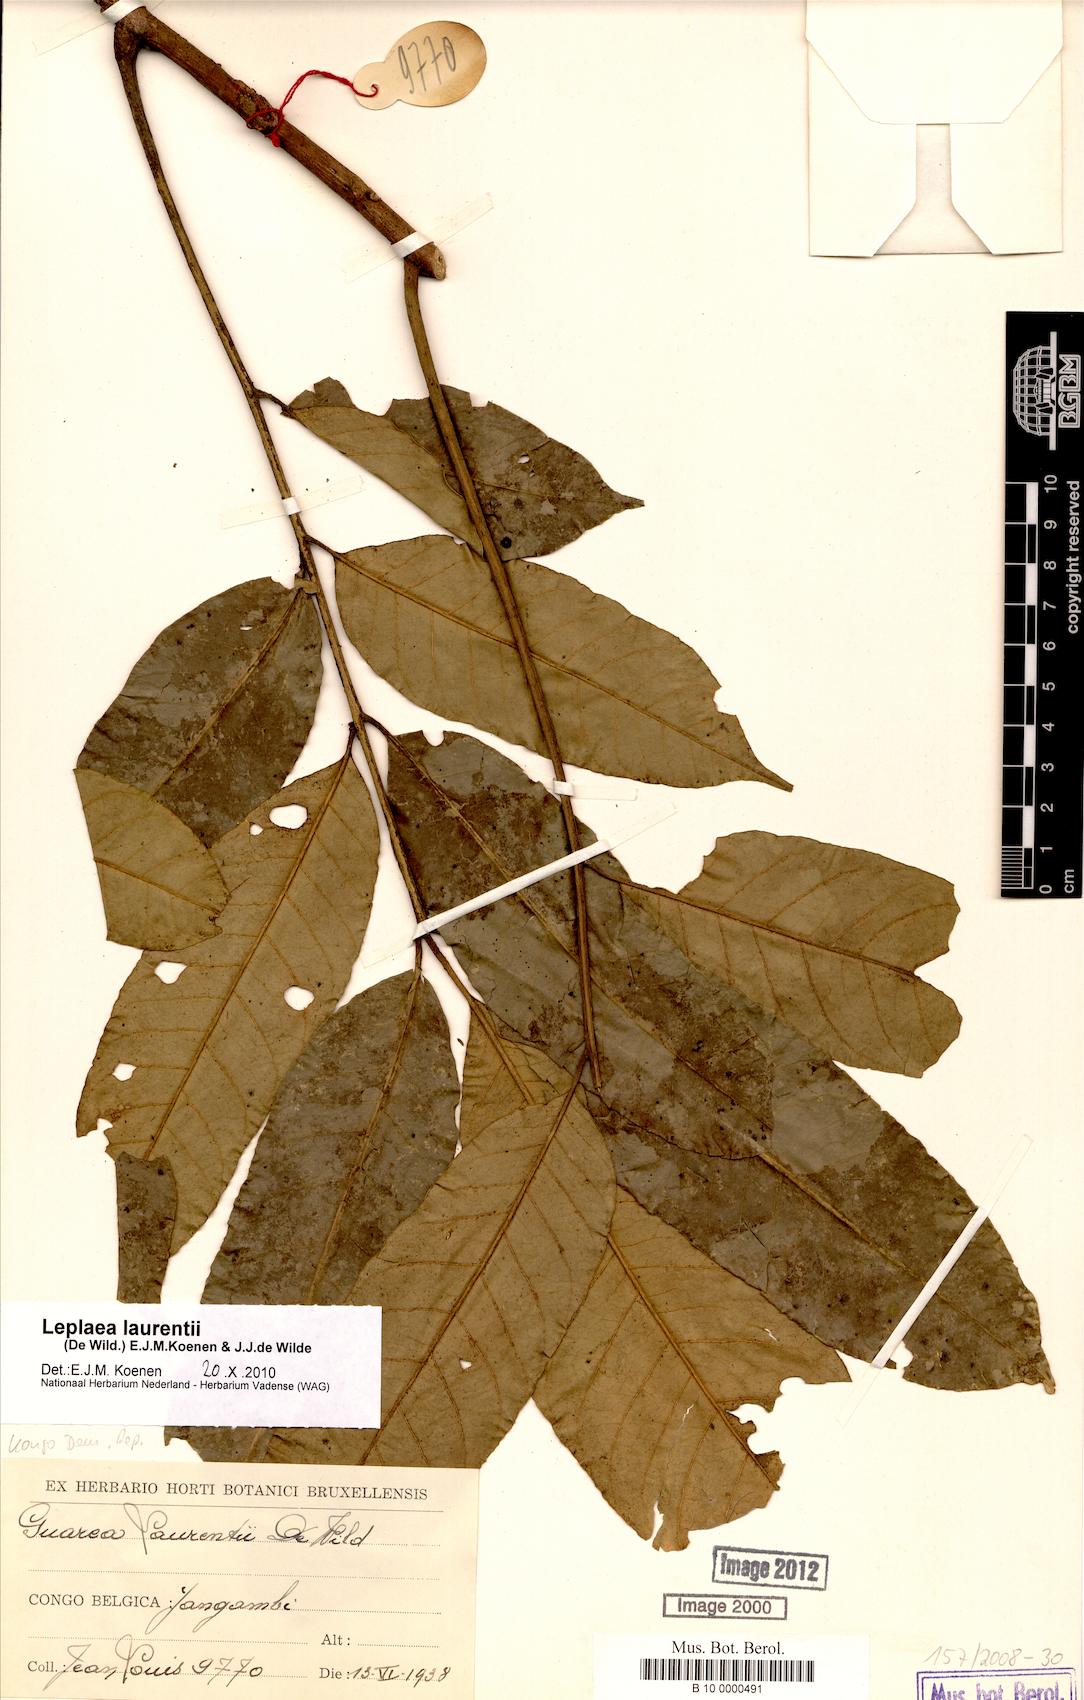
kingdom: Plantae
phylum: Tracheophyta
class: Magnoliopsida
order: Sapindales
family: Meliaceae
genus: Leplaea
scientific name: Leplaea laurentii
